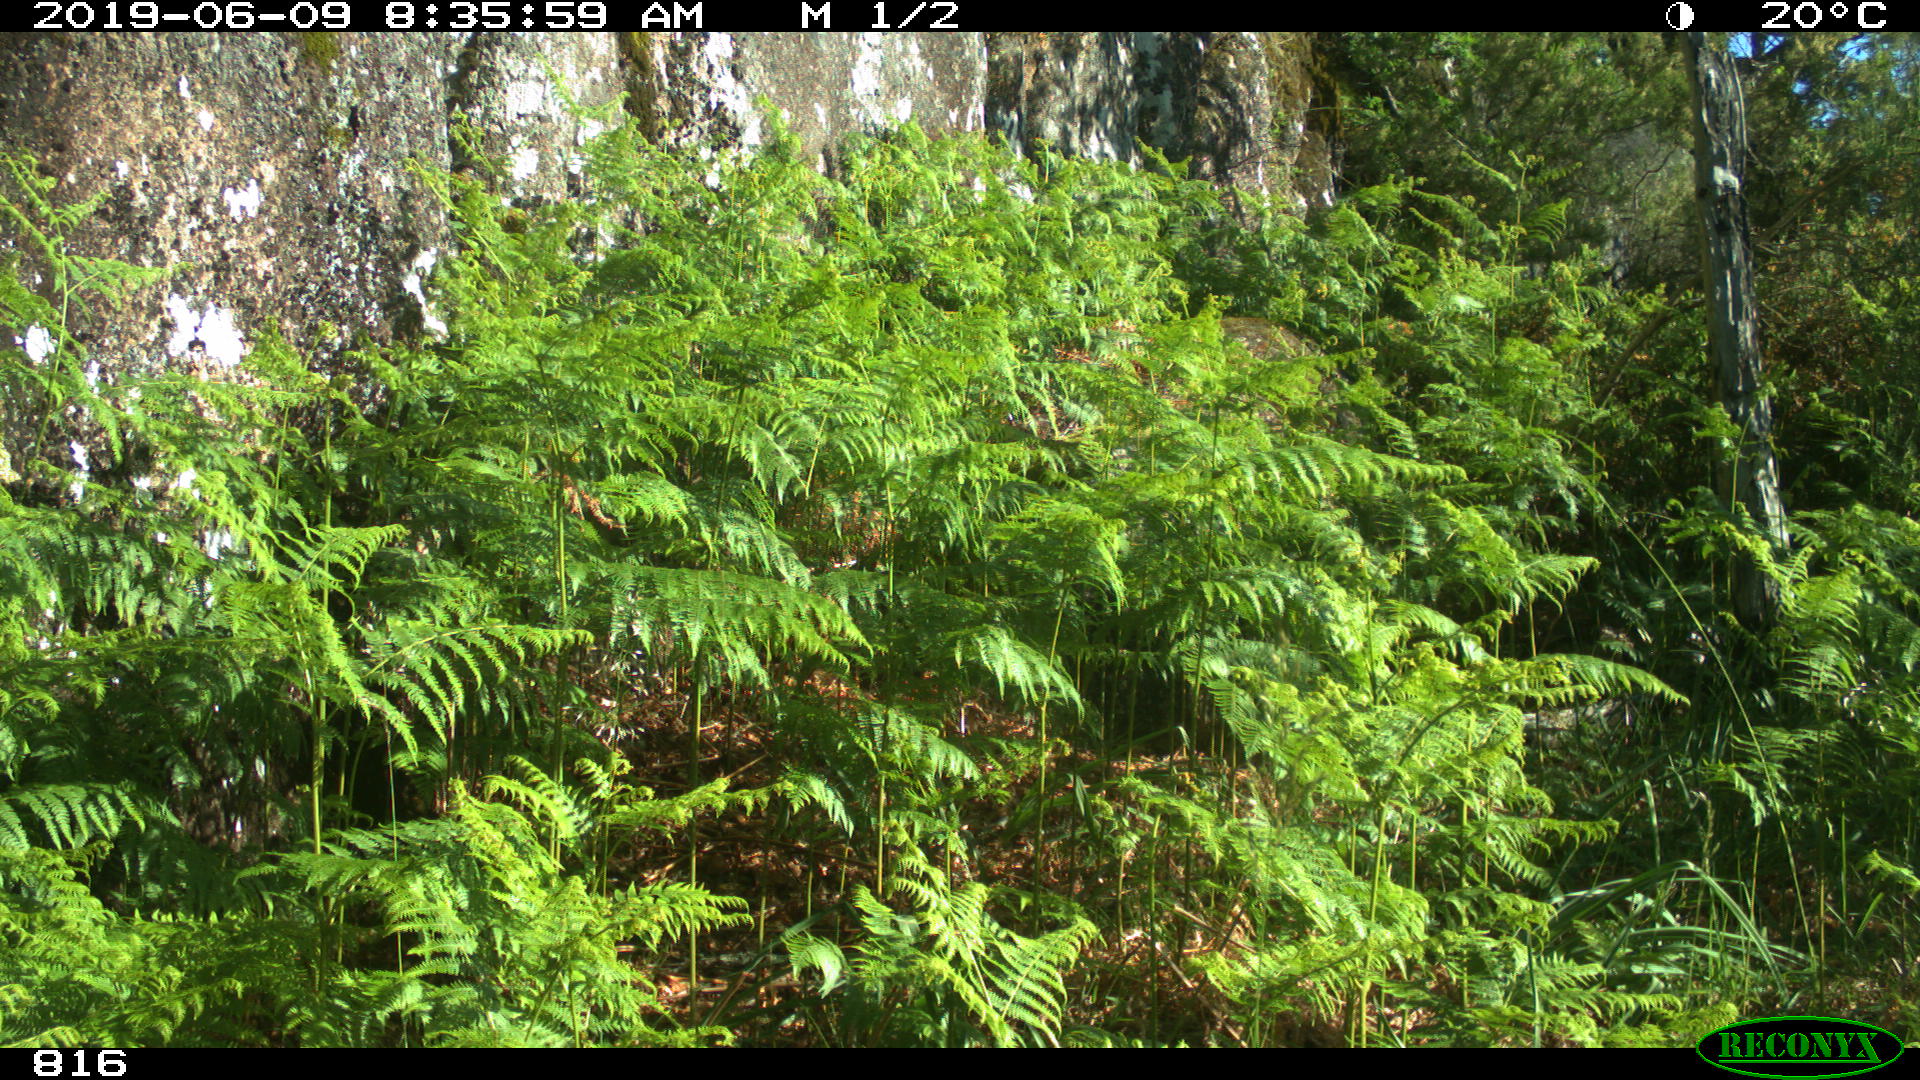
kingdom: Animalia
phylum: Chordata
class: Mammalia
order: Artiodactyla
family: Cervidae
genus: Capreolus
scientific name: Capreolus capreolus
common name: Western roe deer
